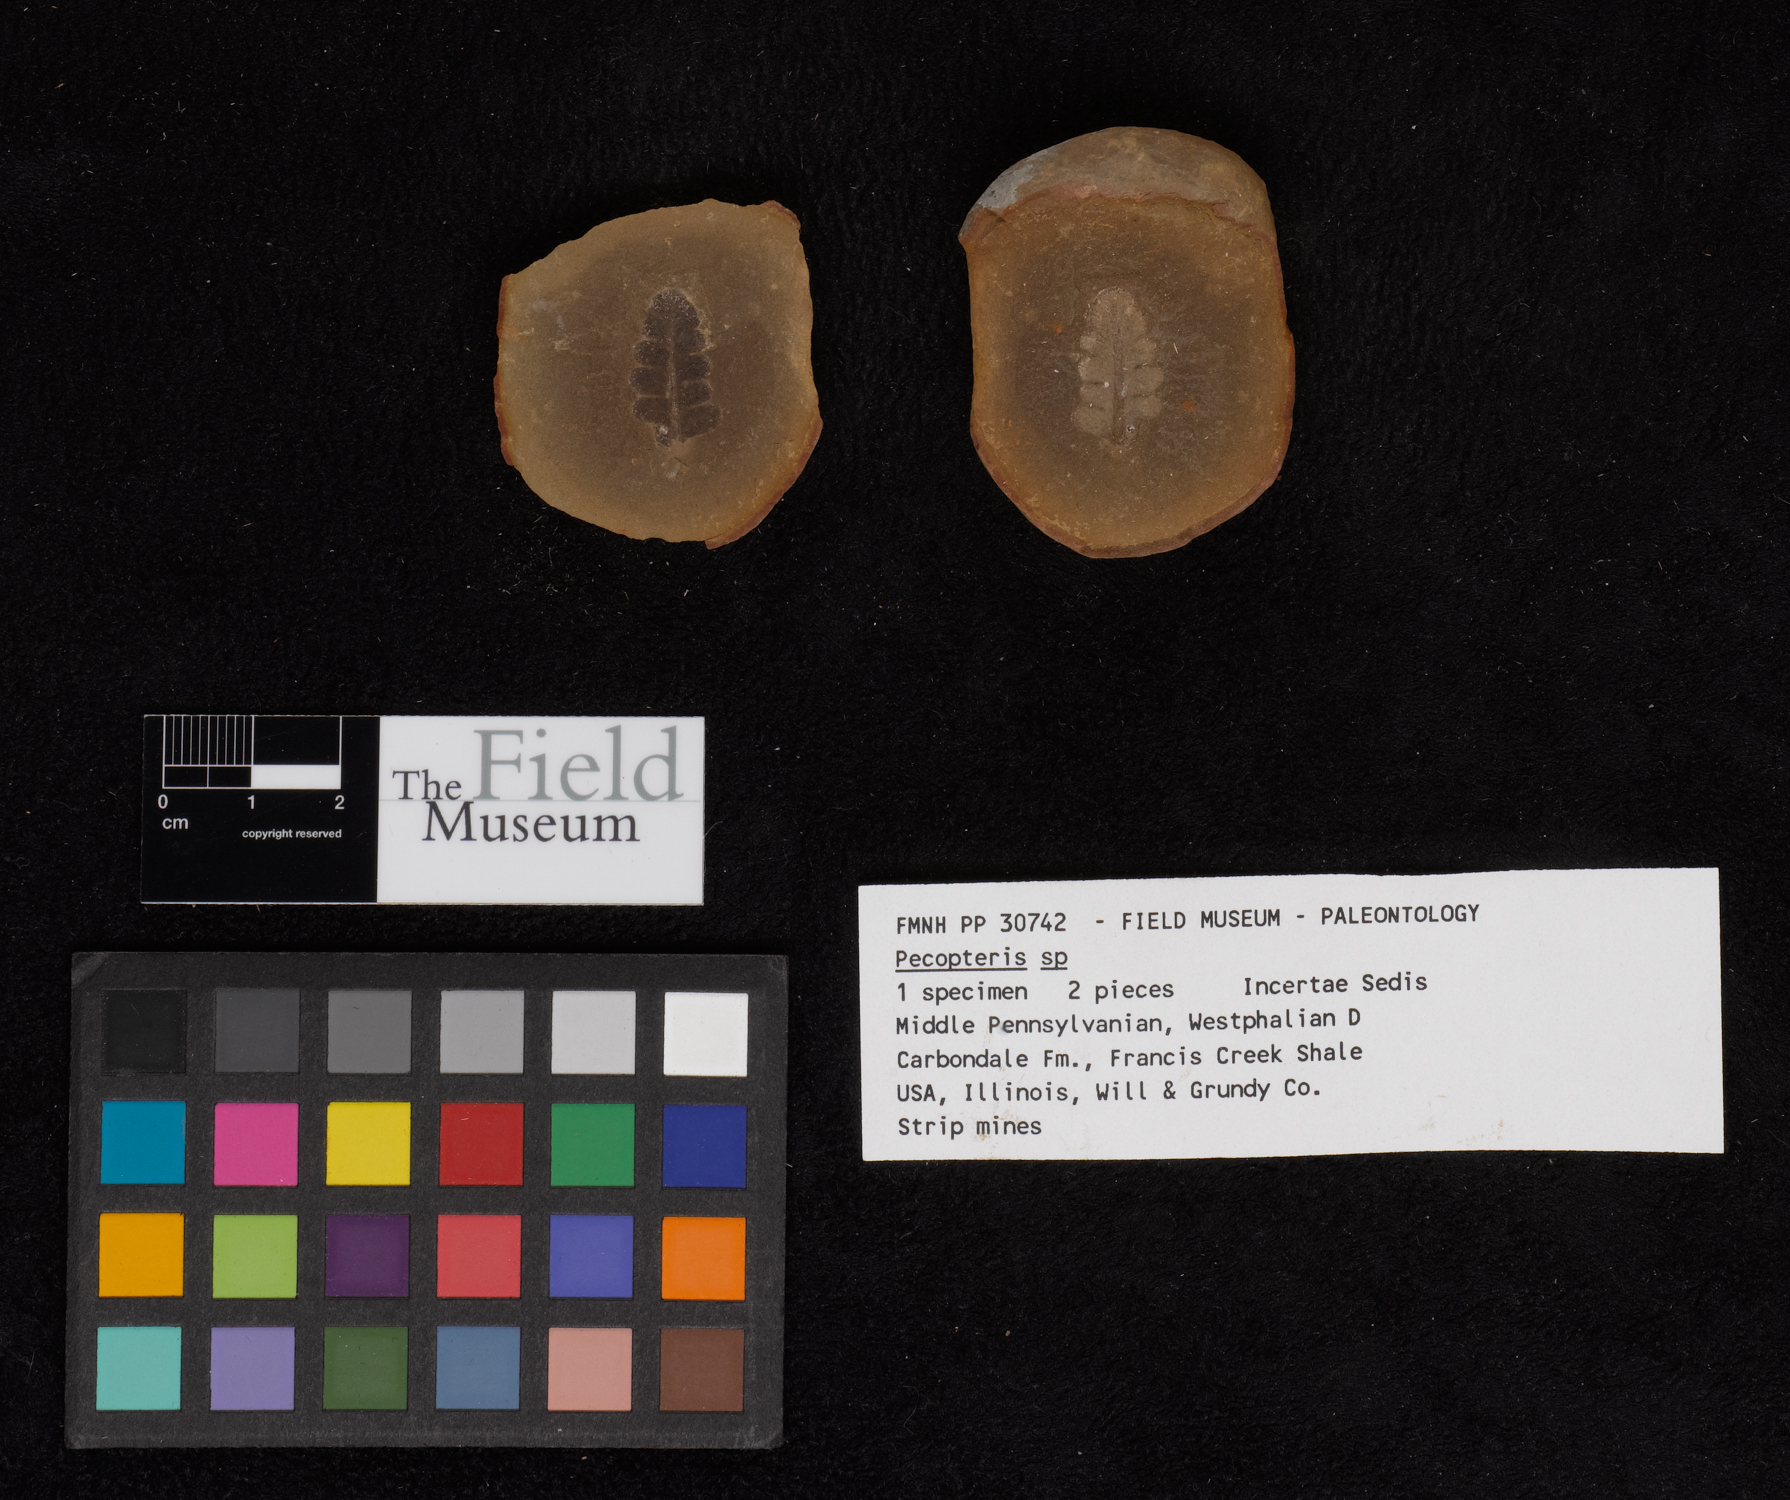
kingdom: Plantae
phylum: Tracheophyta
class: Polypodiopsida
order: Marattiales
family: Asterothecaceae
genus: Pecopteris
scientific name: Pecopteris
